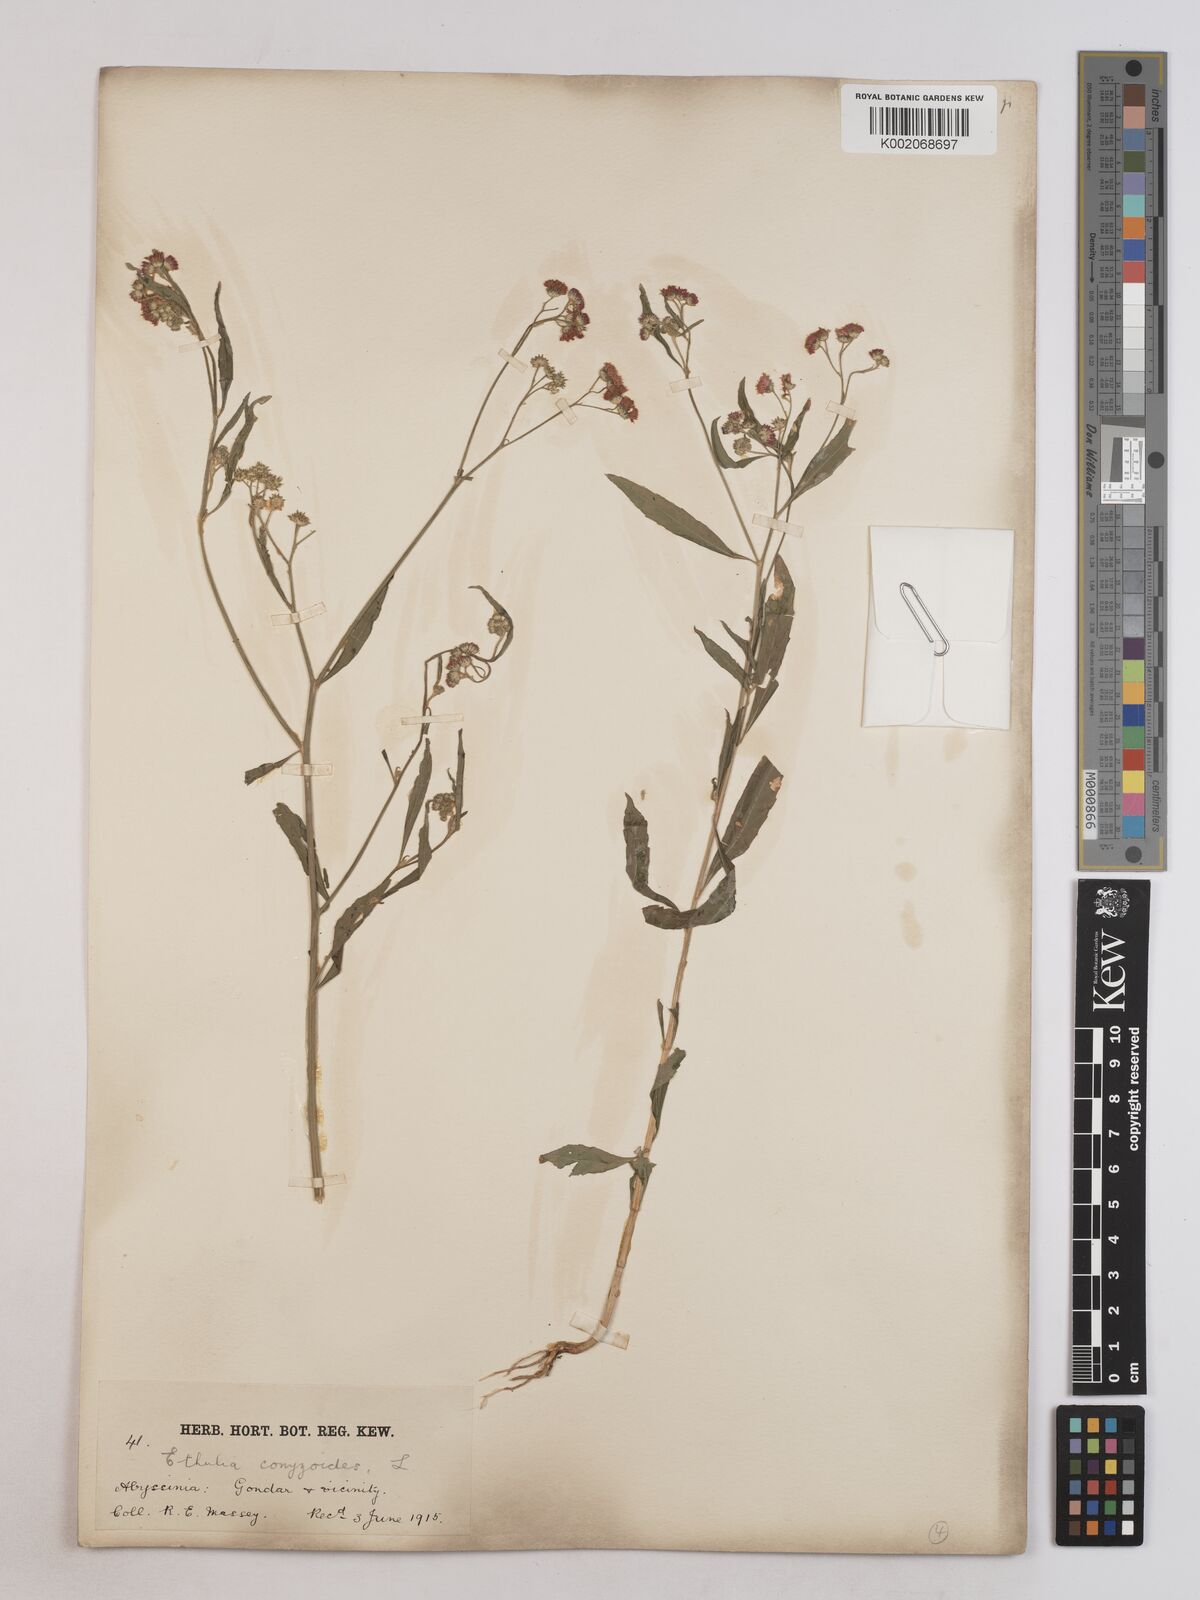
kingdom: Plantae
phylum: Tracheophyta
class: Magnoliopsida
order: Asterales
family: Asteraceae
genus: Ethulia
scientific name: Ethulia gracilis
